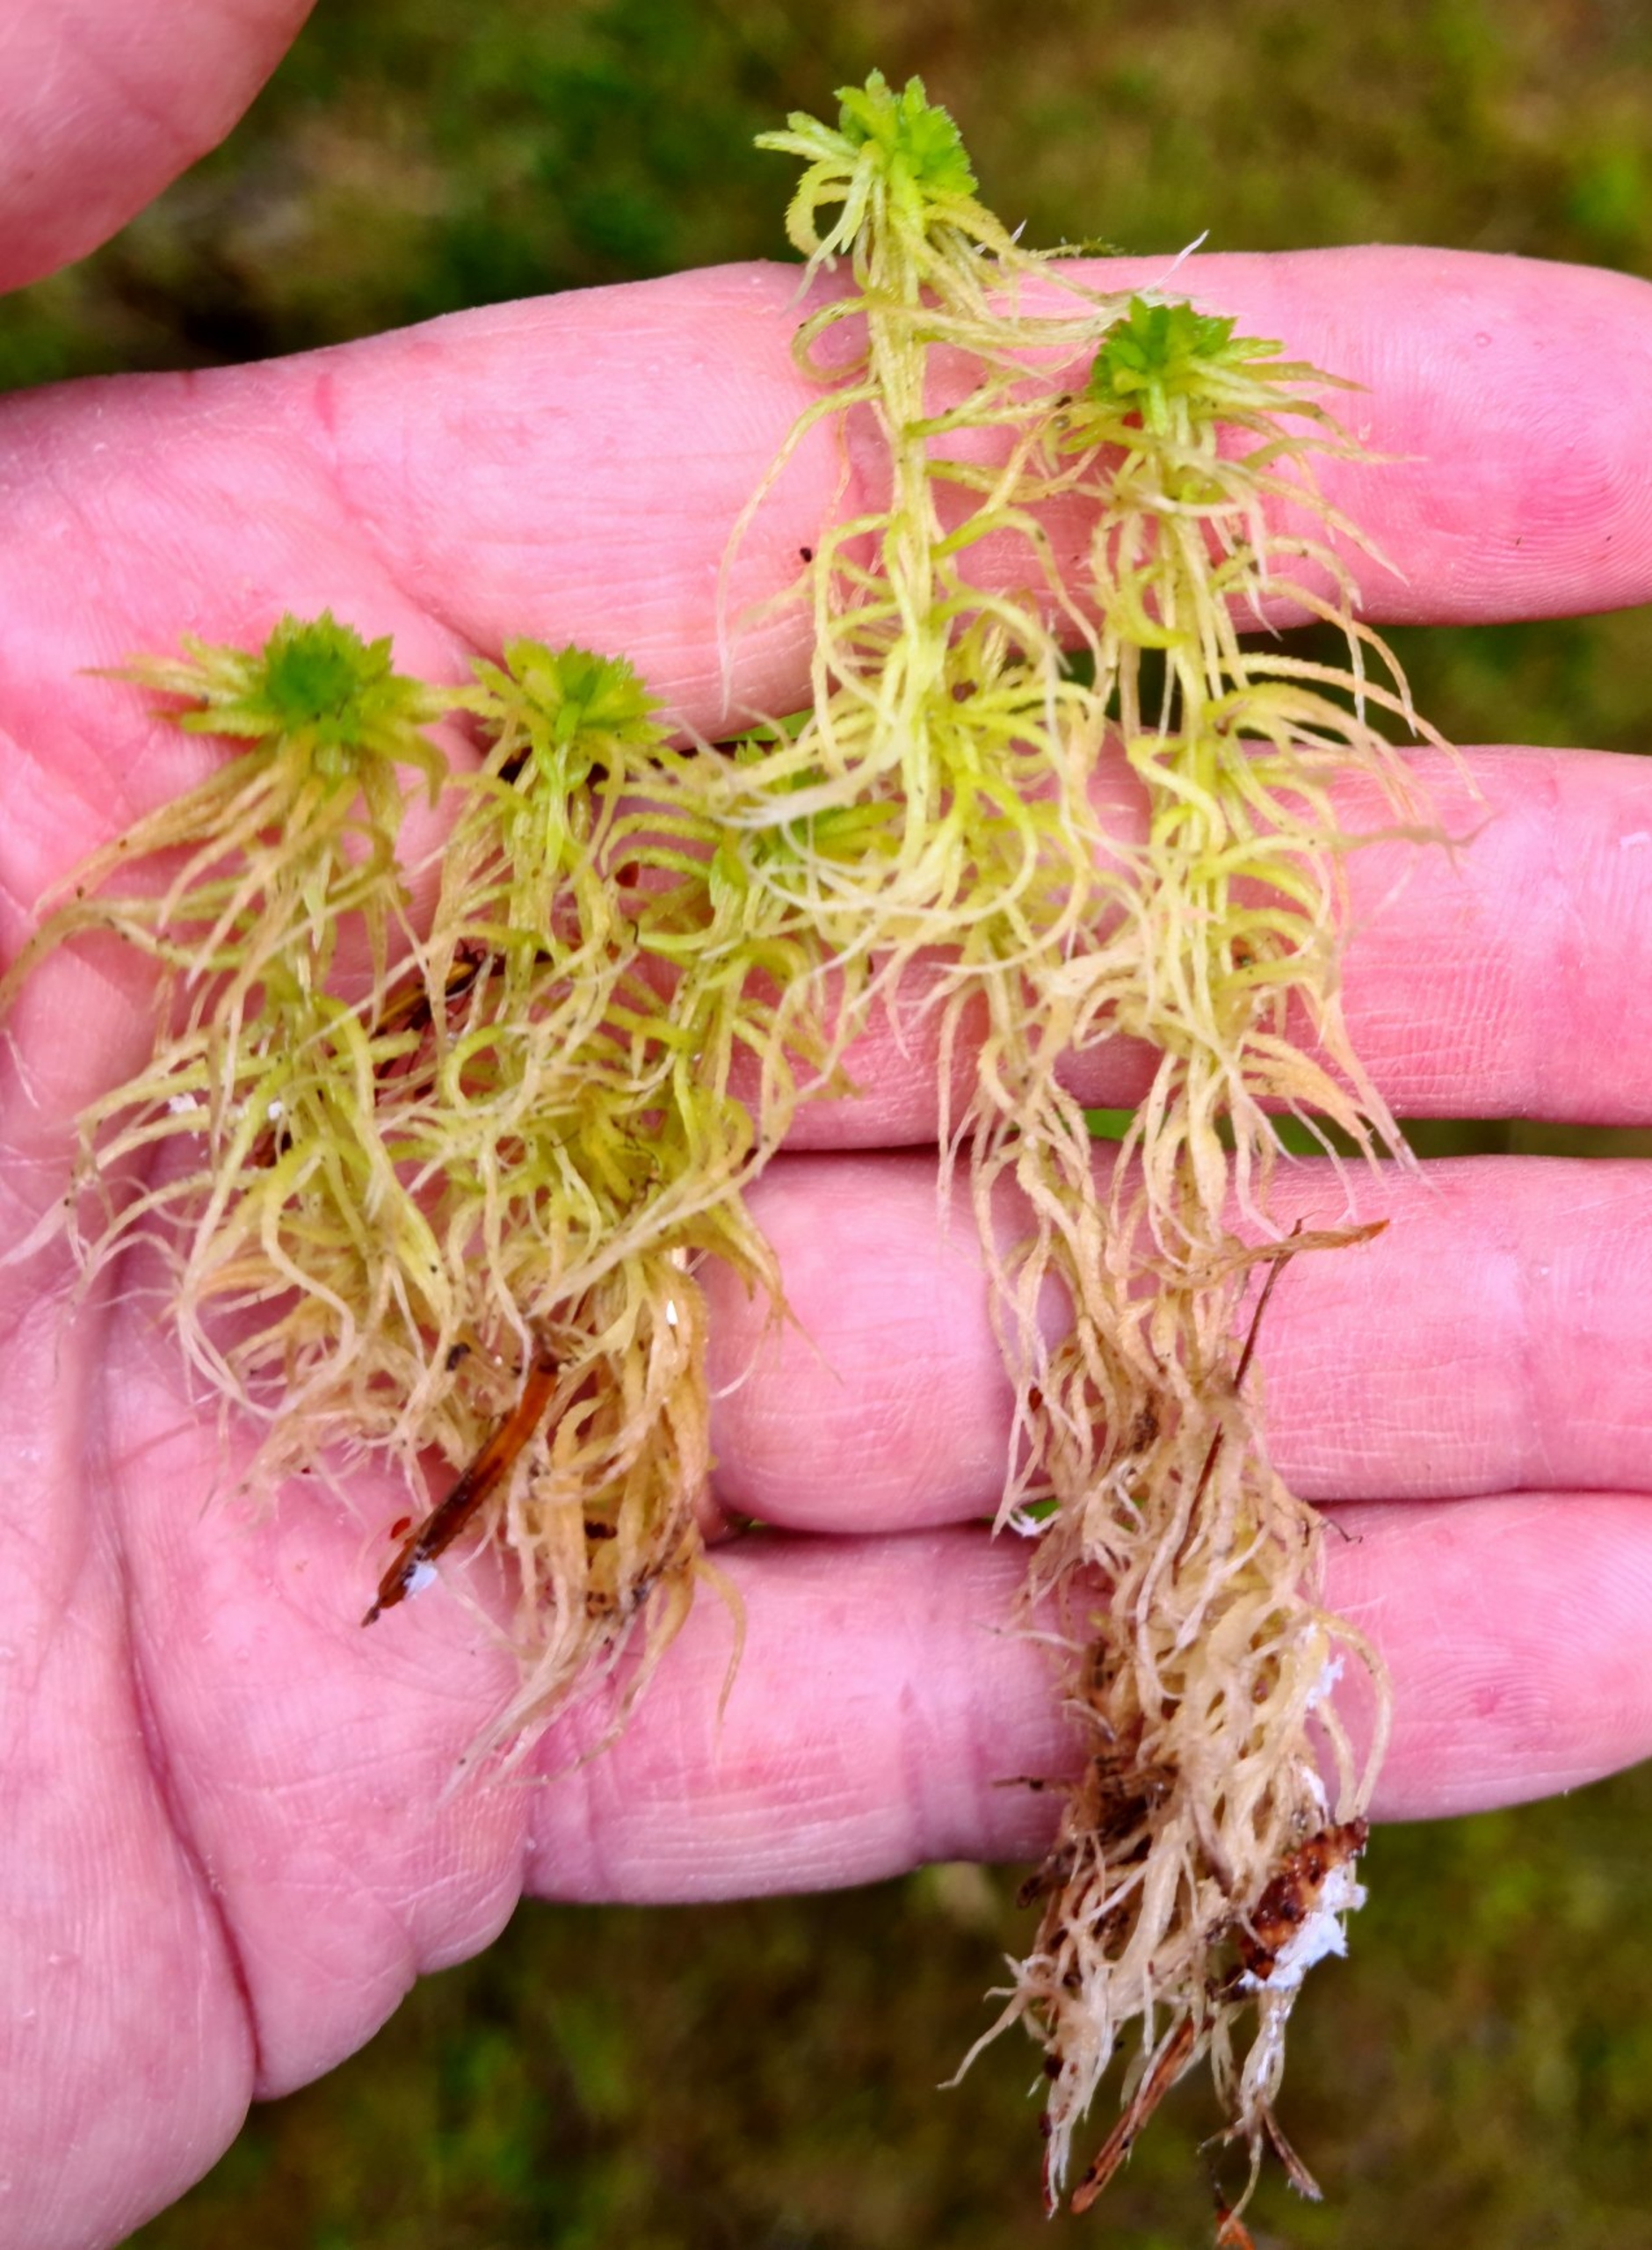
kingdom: Plantae
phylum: Bryophyta
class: Sphagnopsida
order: Sphagnales
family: Sphagnaceae
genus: Sphagnum
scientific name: Sphagnum fimbriatum
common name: Frynset tørvemos
